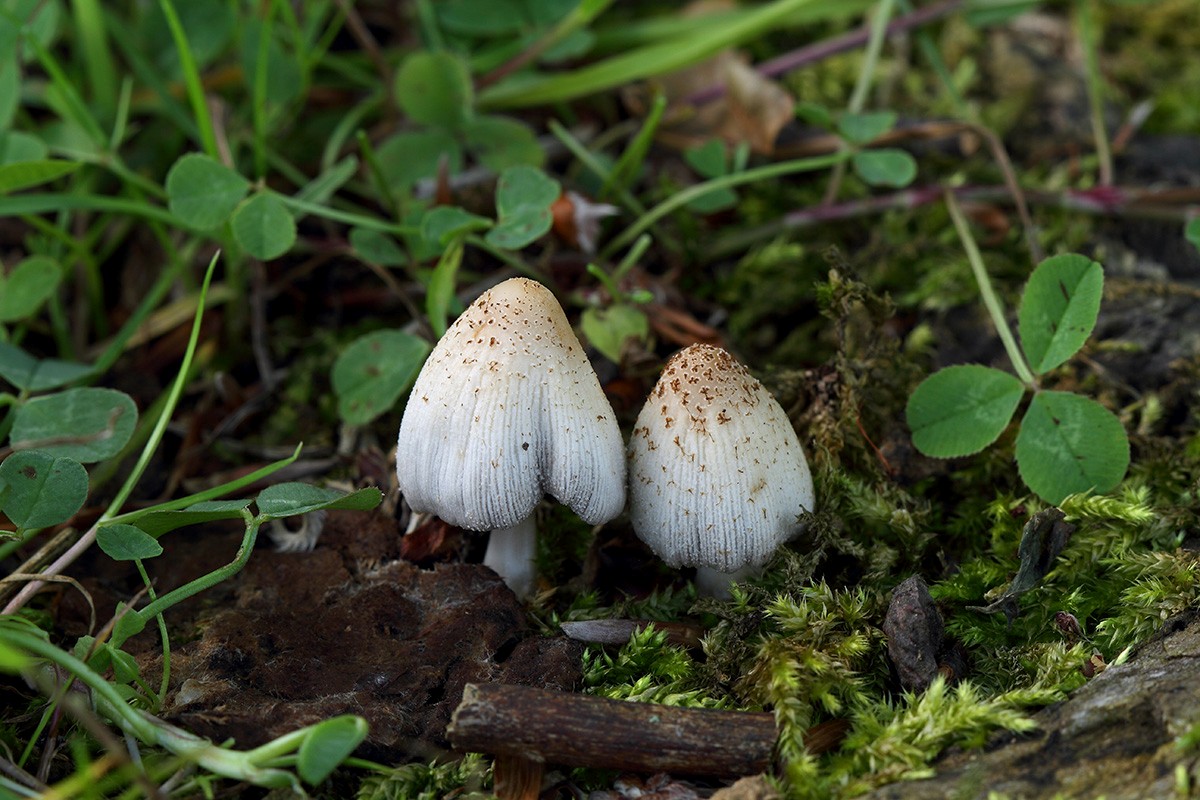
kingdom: Fungi
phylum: Basidiomycota
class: Agaricomycetes
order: Agaricales
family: Psathyrellaceae
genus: Coprinellus
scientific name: Coprinellus domesticus
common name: hus-blækhat
